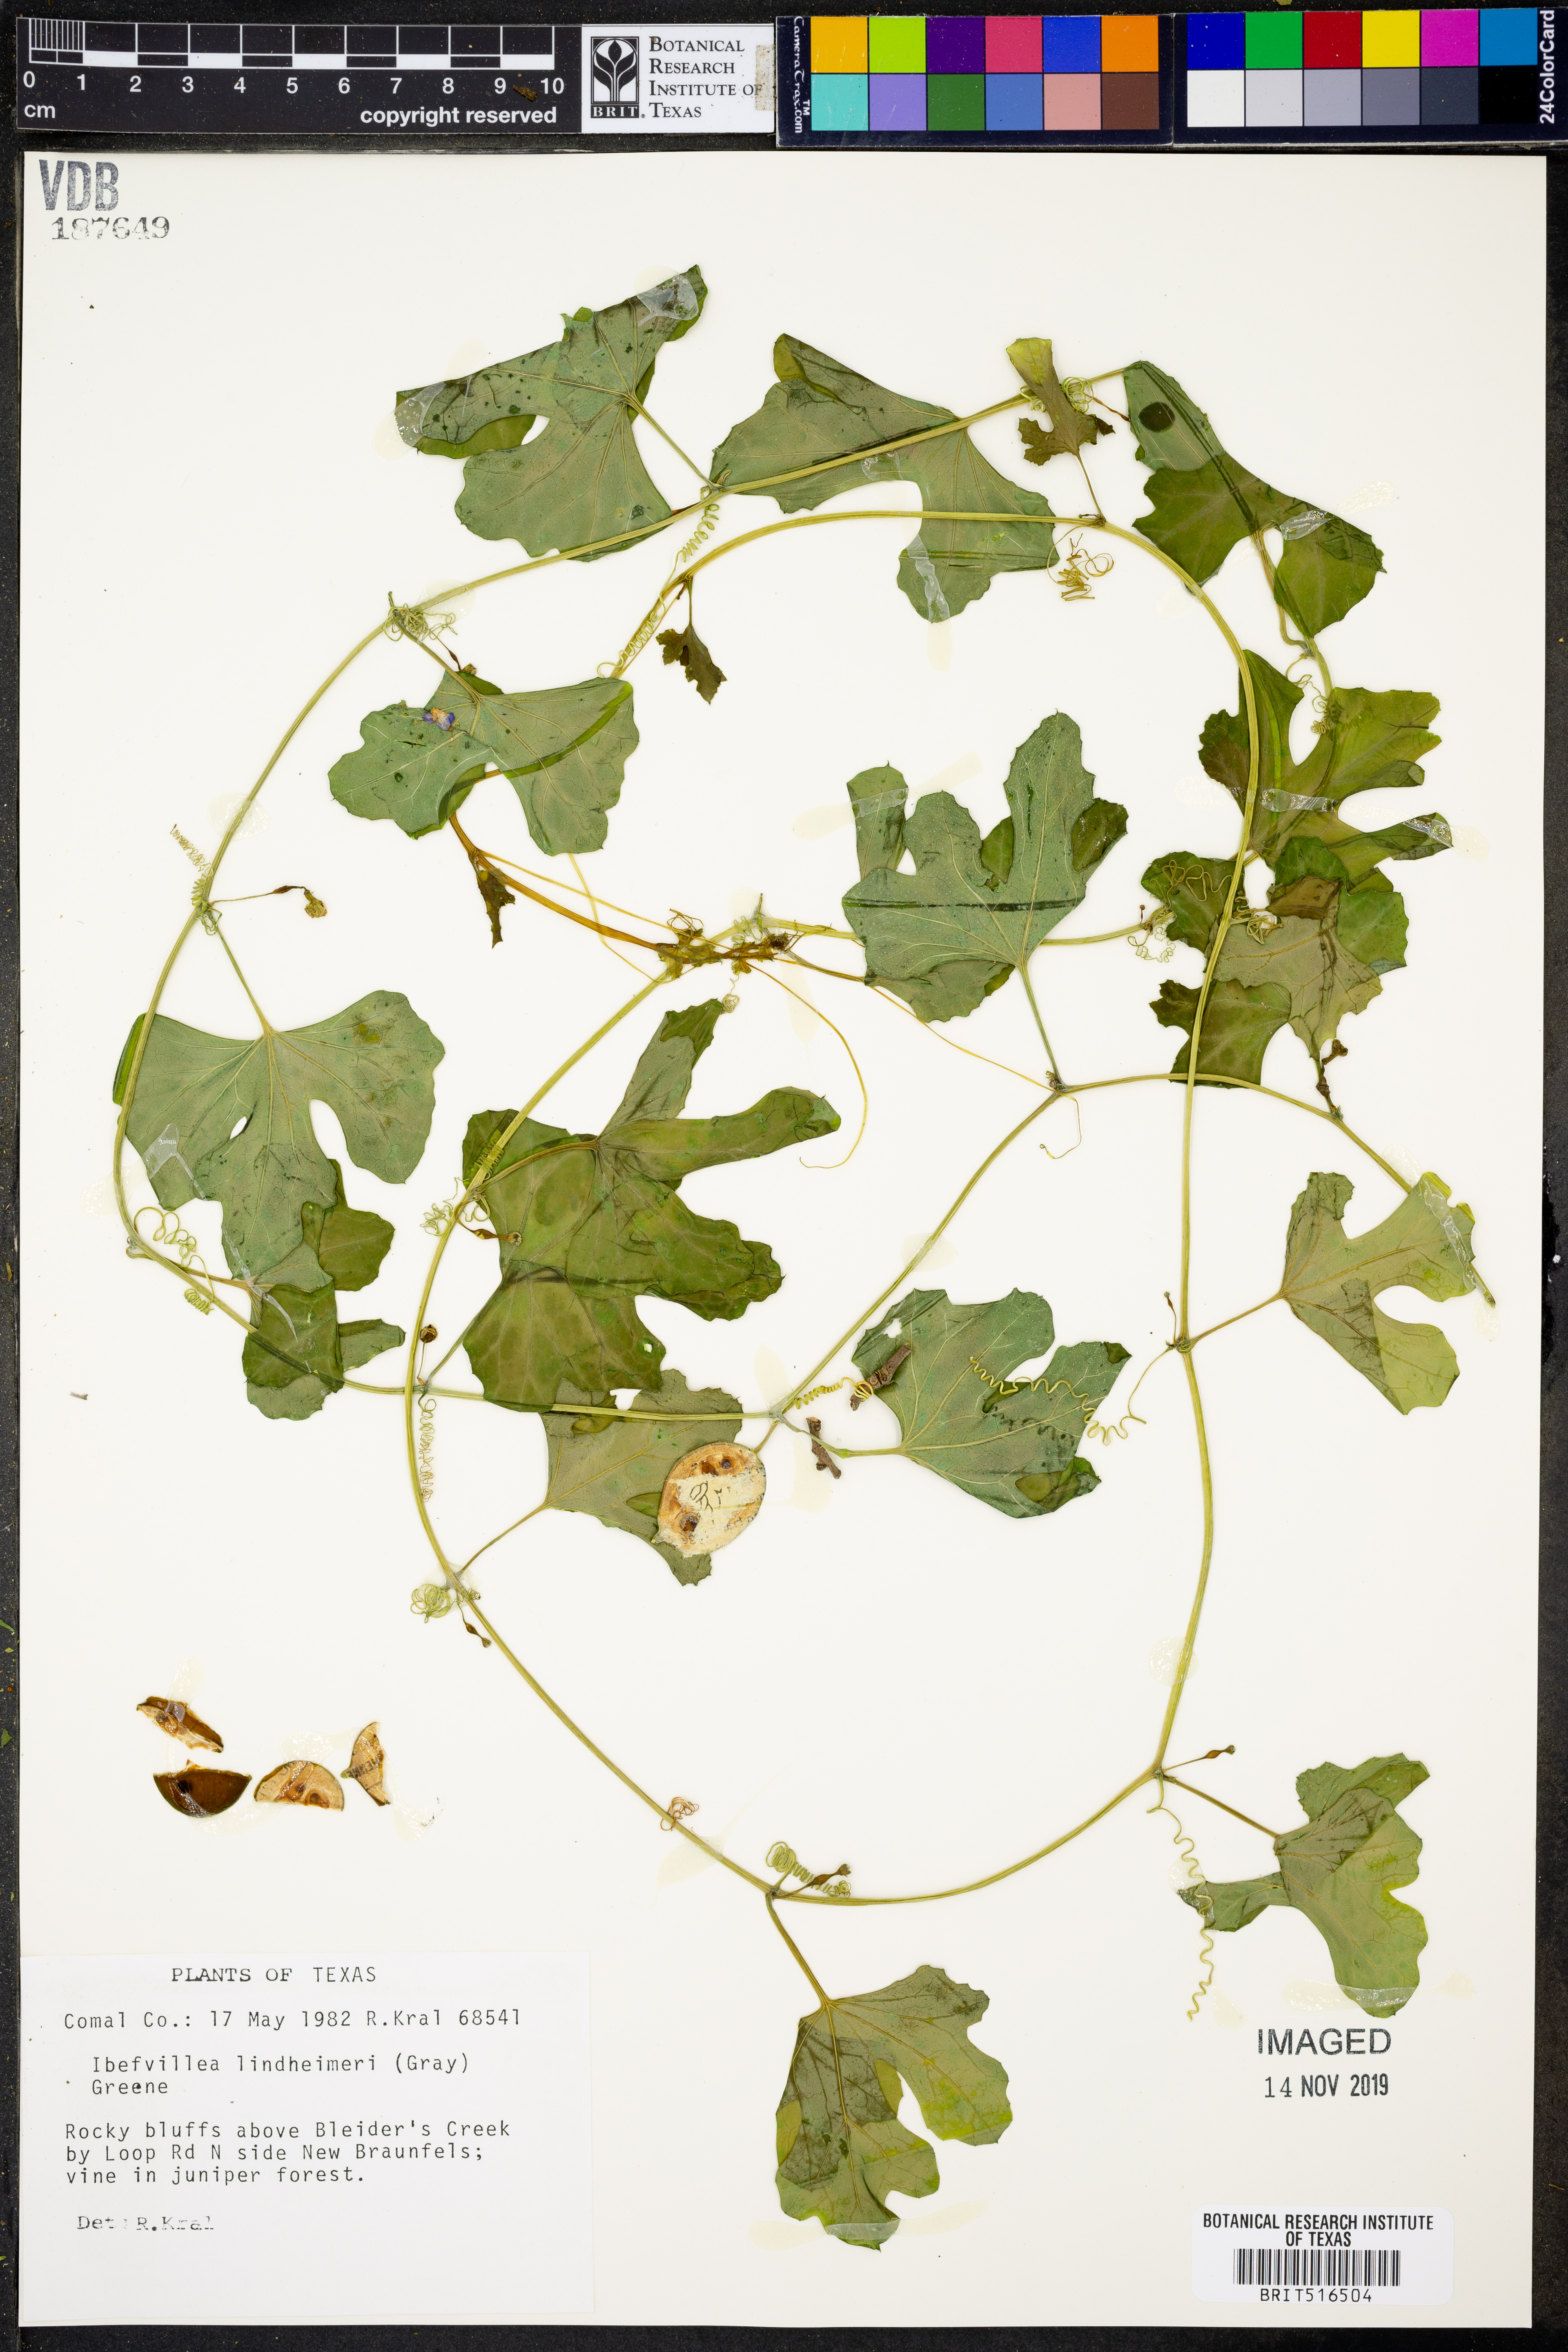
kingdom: Plantae
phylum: Tracheophyta
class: Magnoliopsida
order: Cucurbitales
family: Cucurbitaceae
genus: Ibervillea
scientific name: Ibervillea lindheimeri
